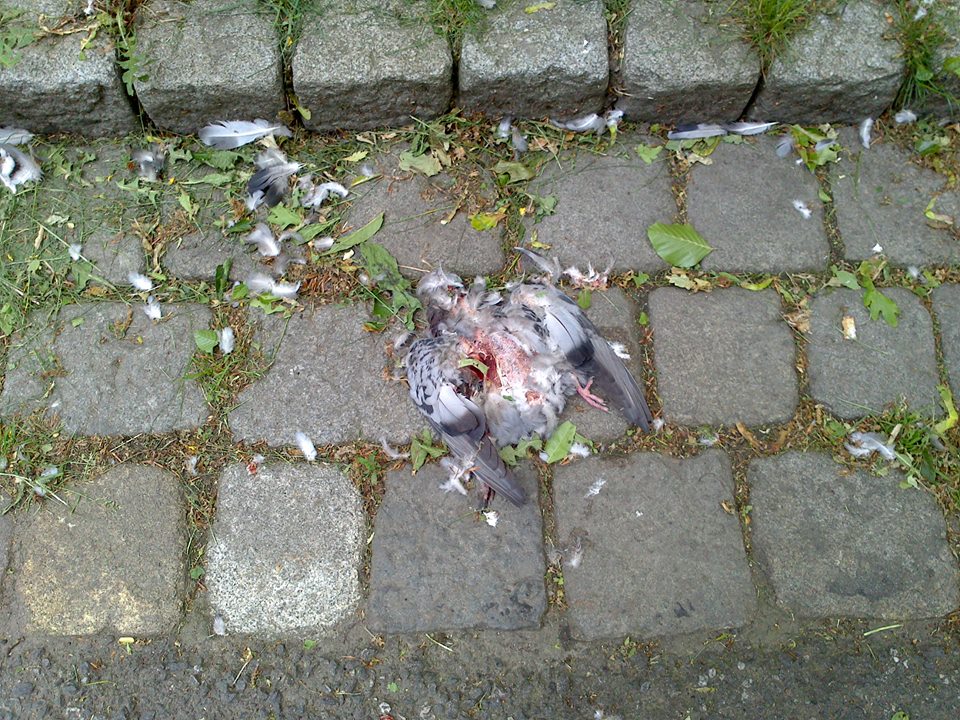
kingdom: Animalia
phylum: Chordata
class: Aves
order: Columbiformes
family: Columbidae
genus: Columba
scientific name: Columba livia
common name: Rock pigeon
